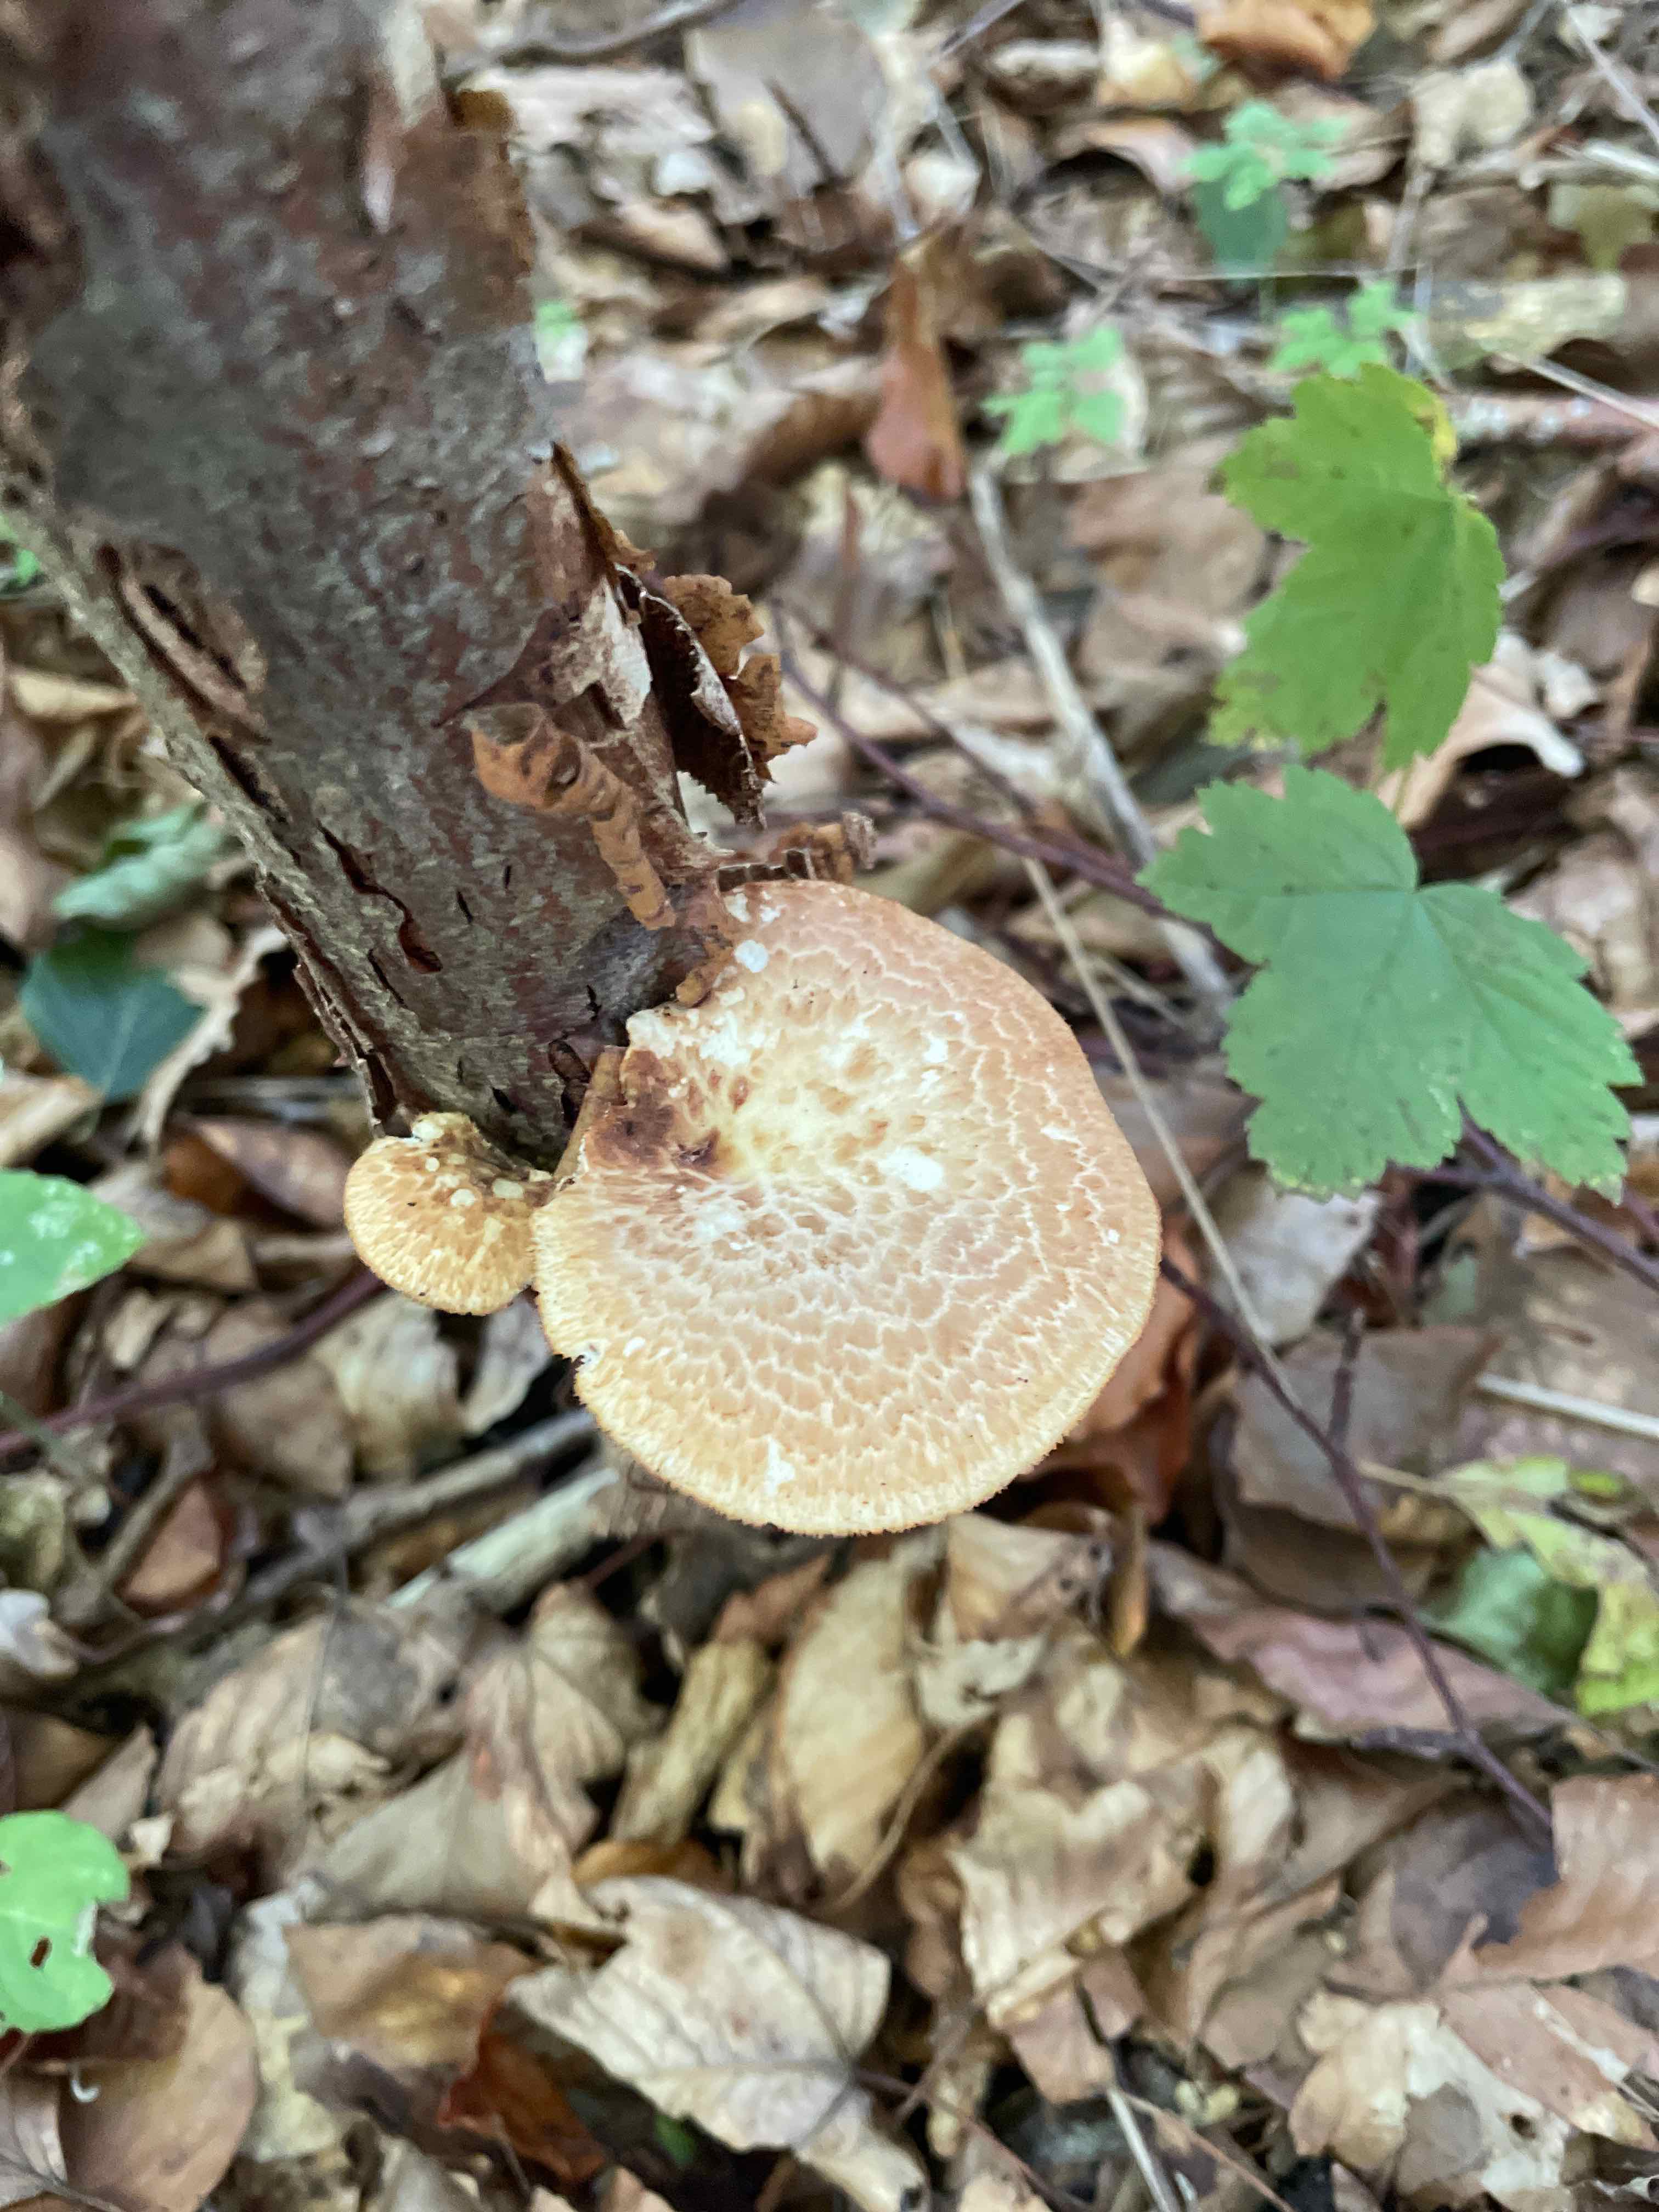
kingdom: Fungi
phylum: Basidiomycota
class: Agaricomycetes
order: Polyporales
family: Polyporaceae
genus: Polyporus
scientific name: Polyporus tuberaster
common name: knoldet stilkporesvamp
